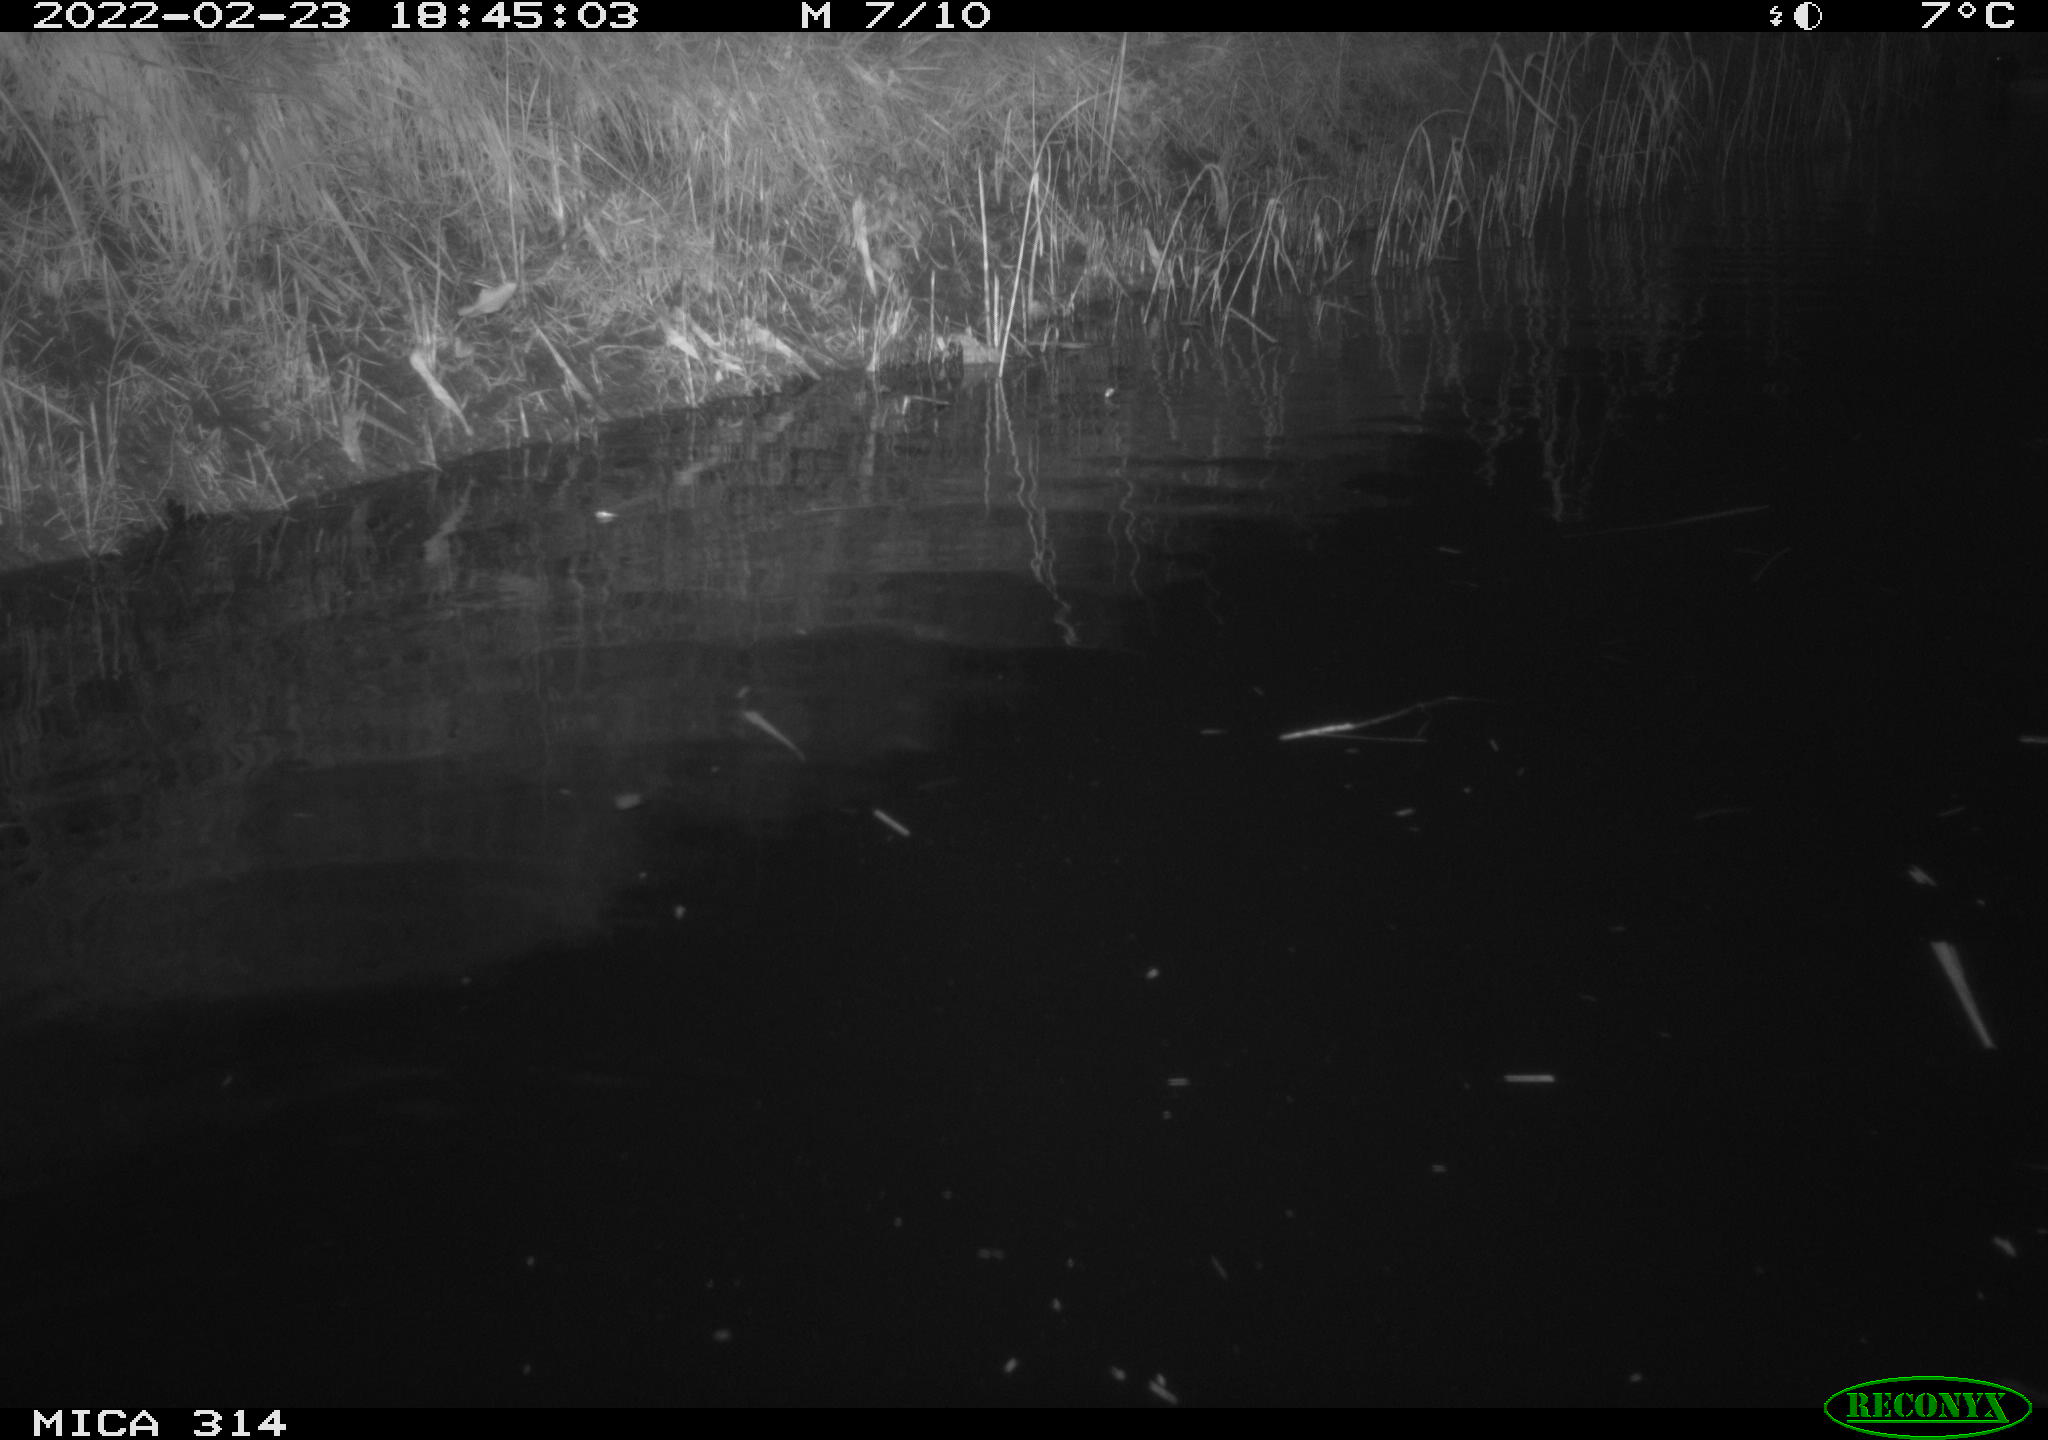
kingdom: Animalia
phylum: Chordata
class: Aves
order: Gruiformes
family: Rallidae
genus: Gallinula
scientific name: Gallinula chloropus
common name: Common moorhen
